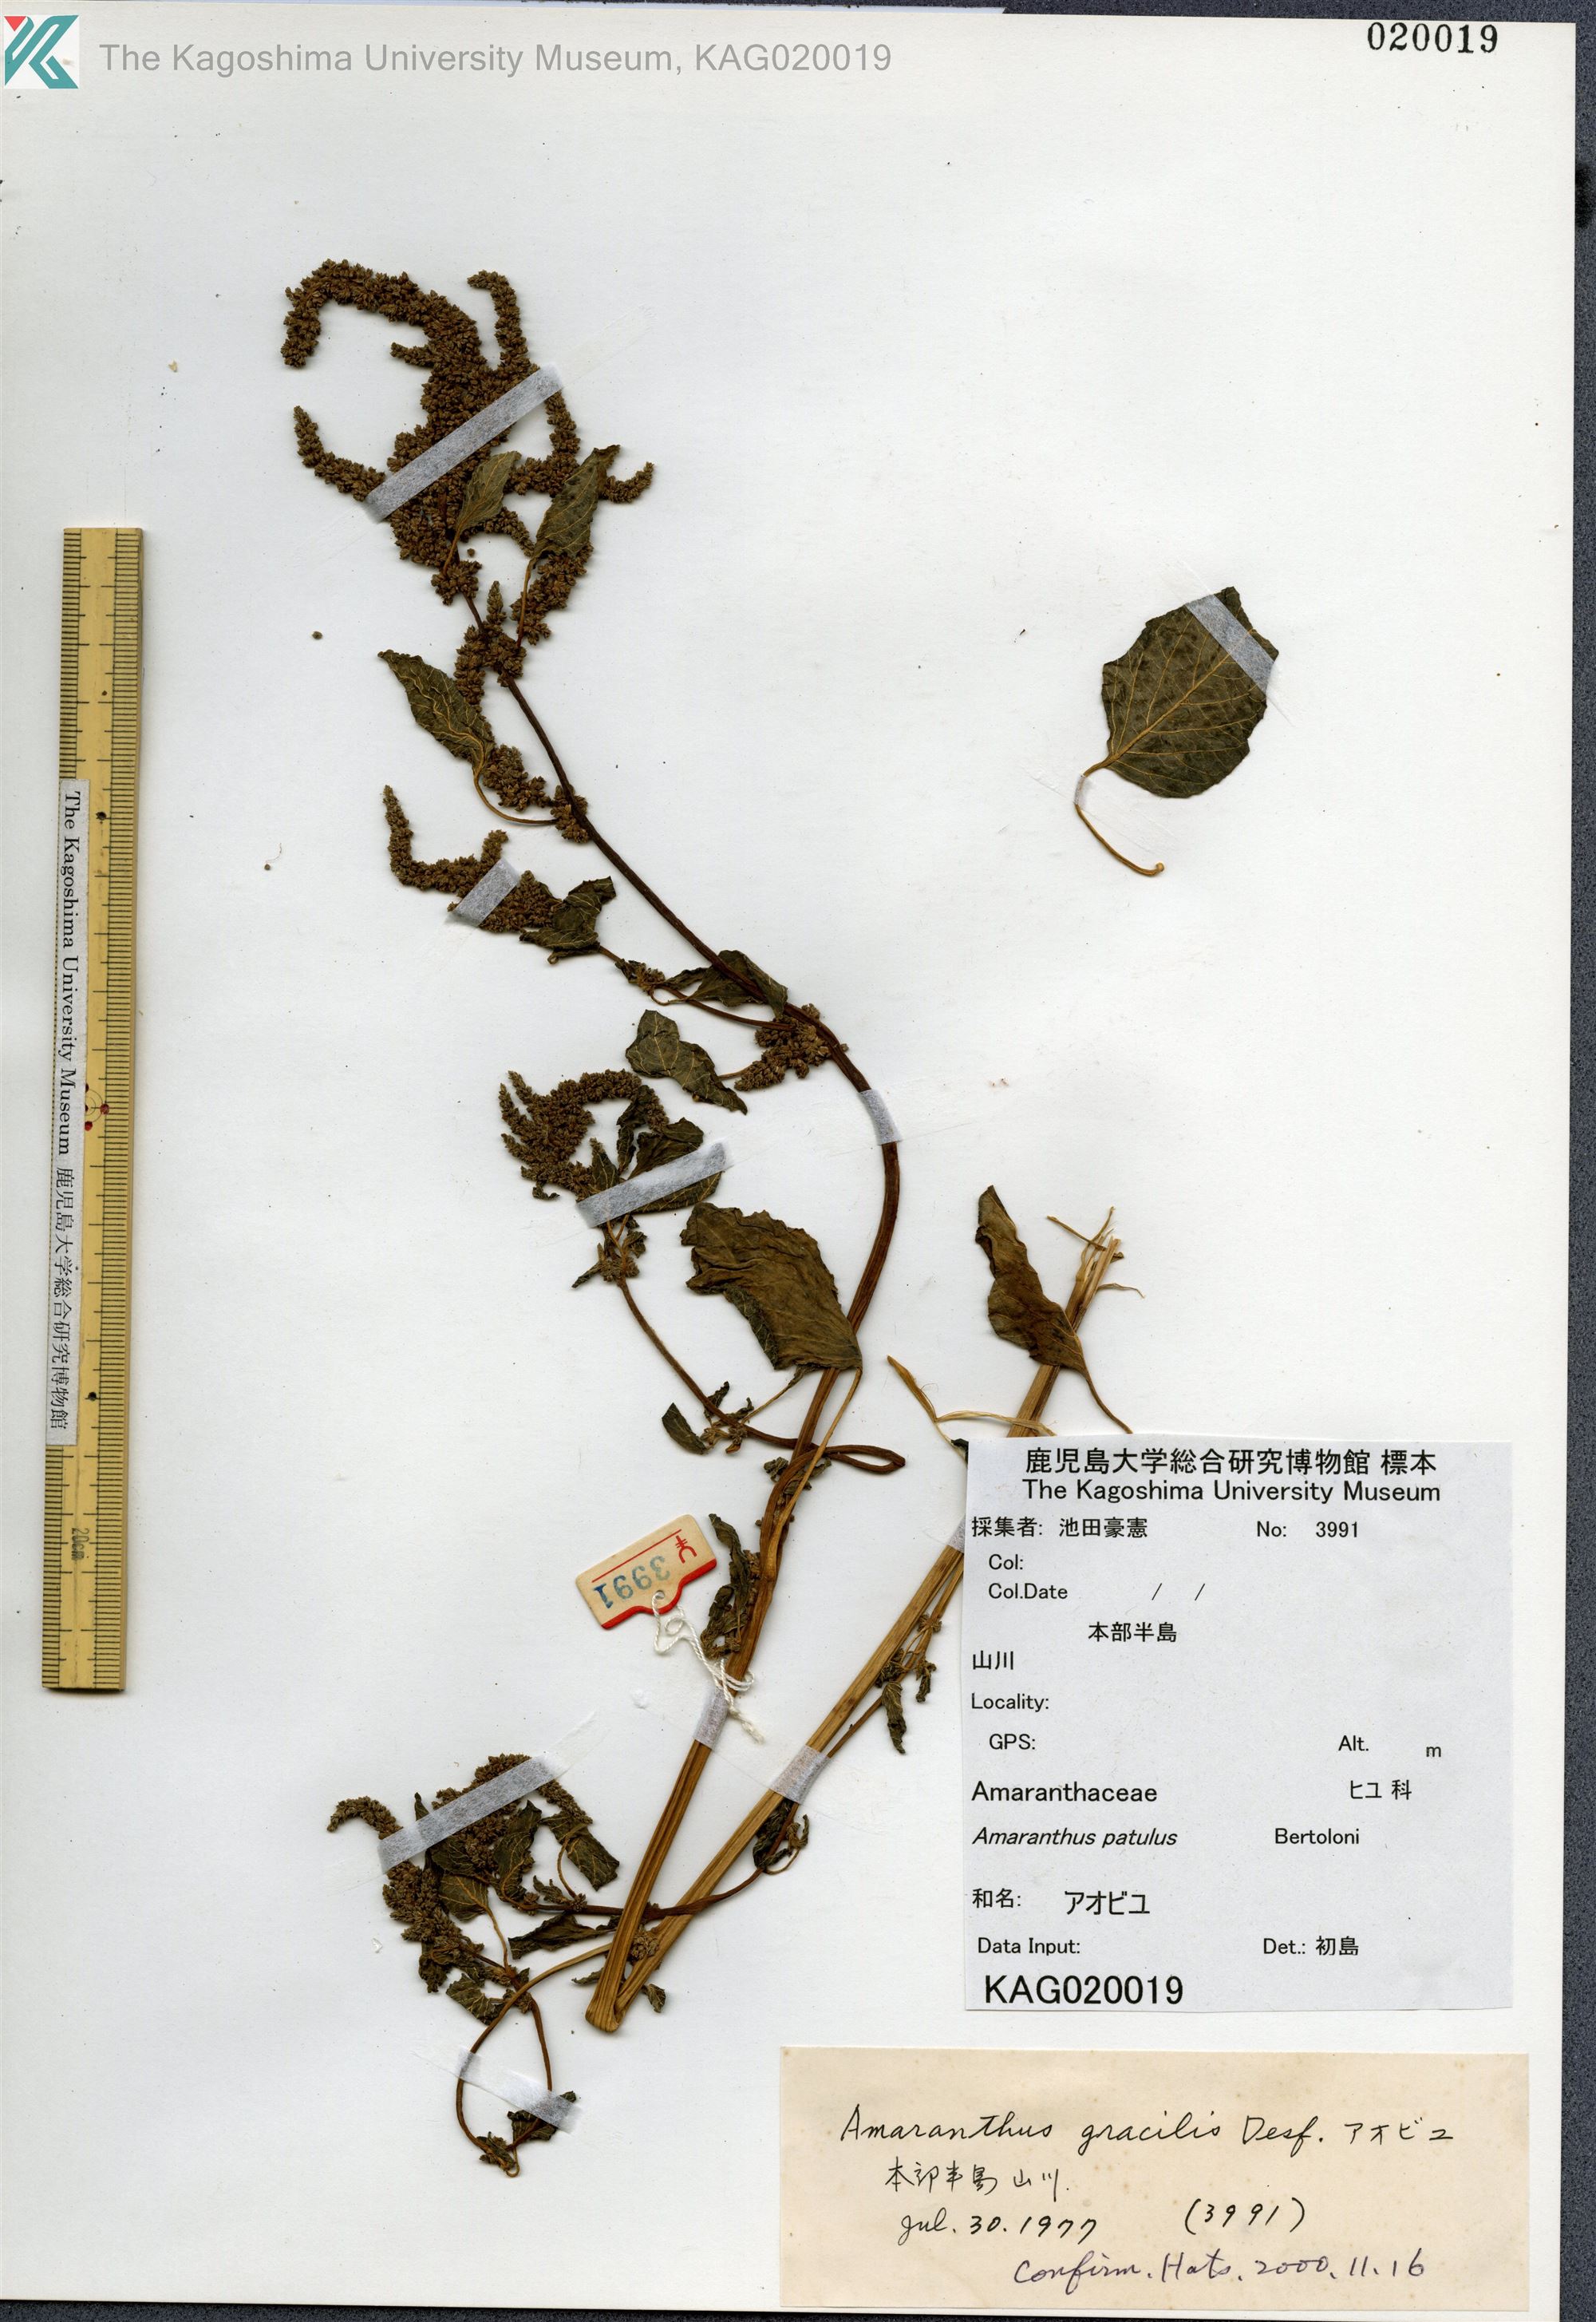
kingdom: Plantae
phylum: Tracheophyta
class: Magnoliopsida
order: Caryophyllales
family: Amaranthaceae
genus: Amaranthus
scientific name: Amaranthus hybridus
